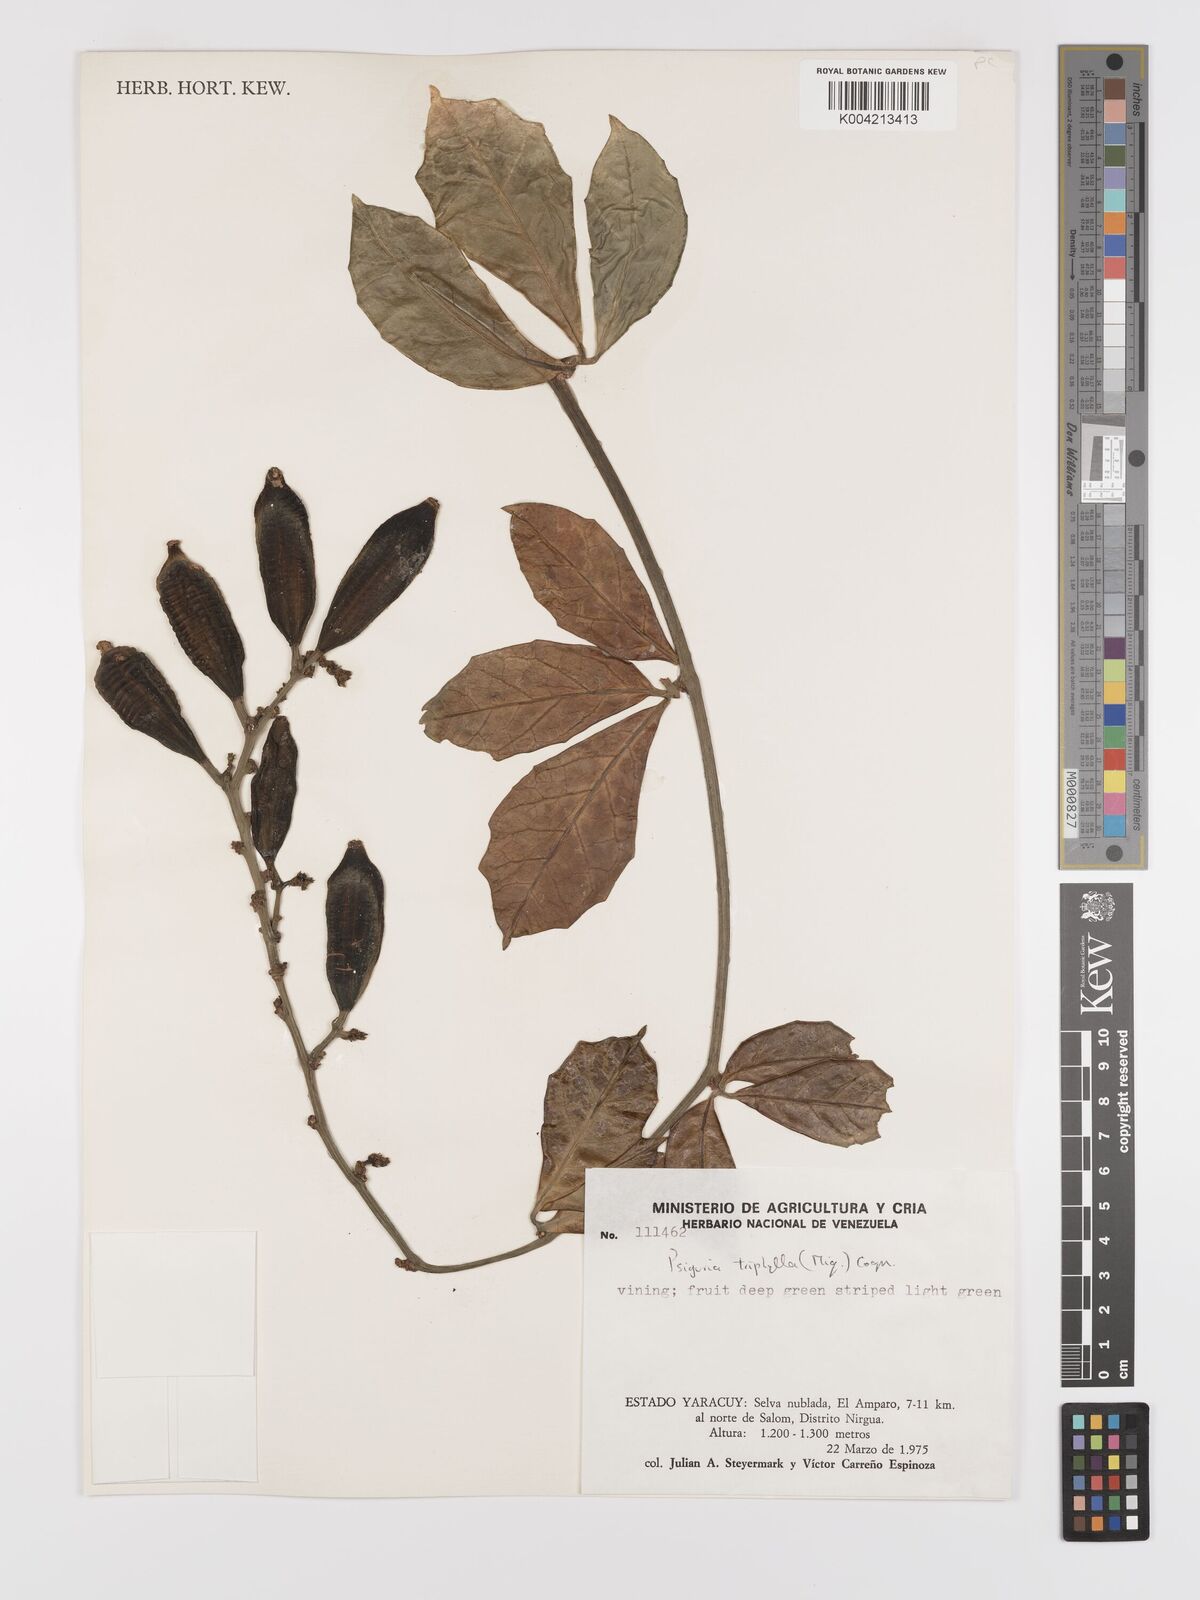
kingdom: Plantae
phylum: Tracheophyta
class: Magnoliopsida
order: Cucurbitales
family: Cucurbitaceae
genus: Psiguria
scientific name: Psiguria triphylla
